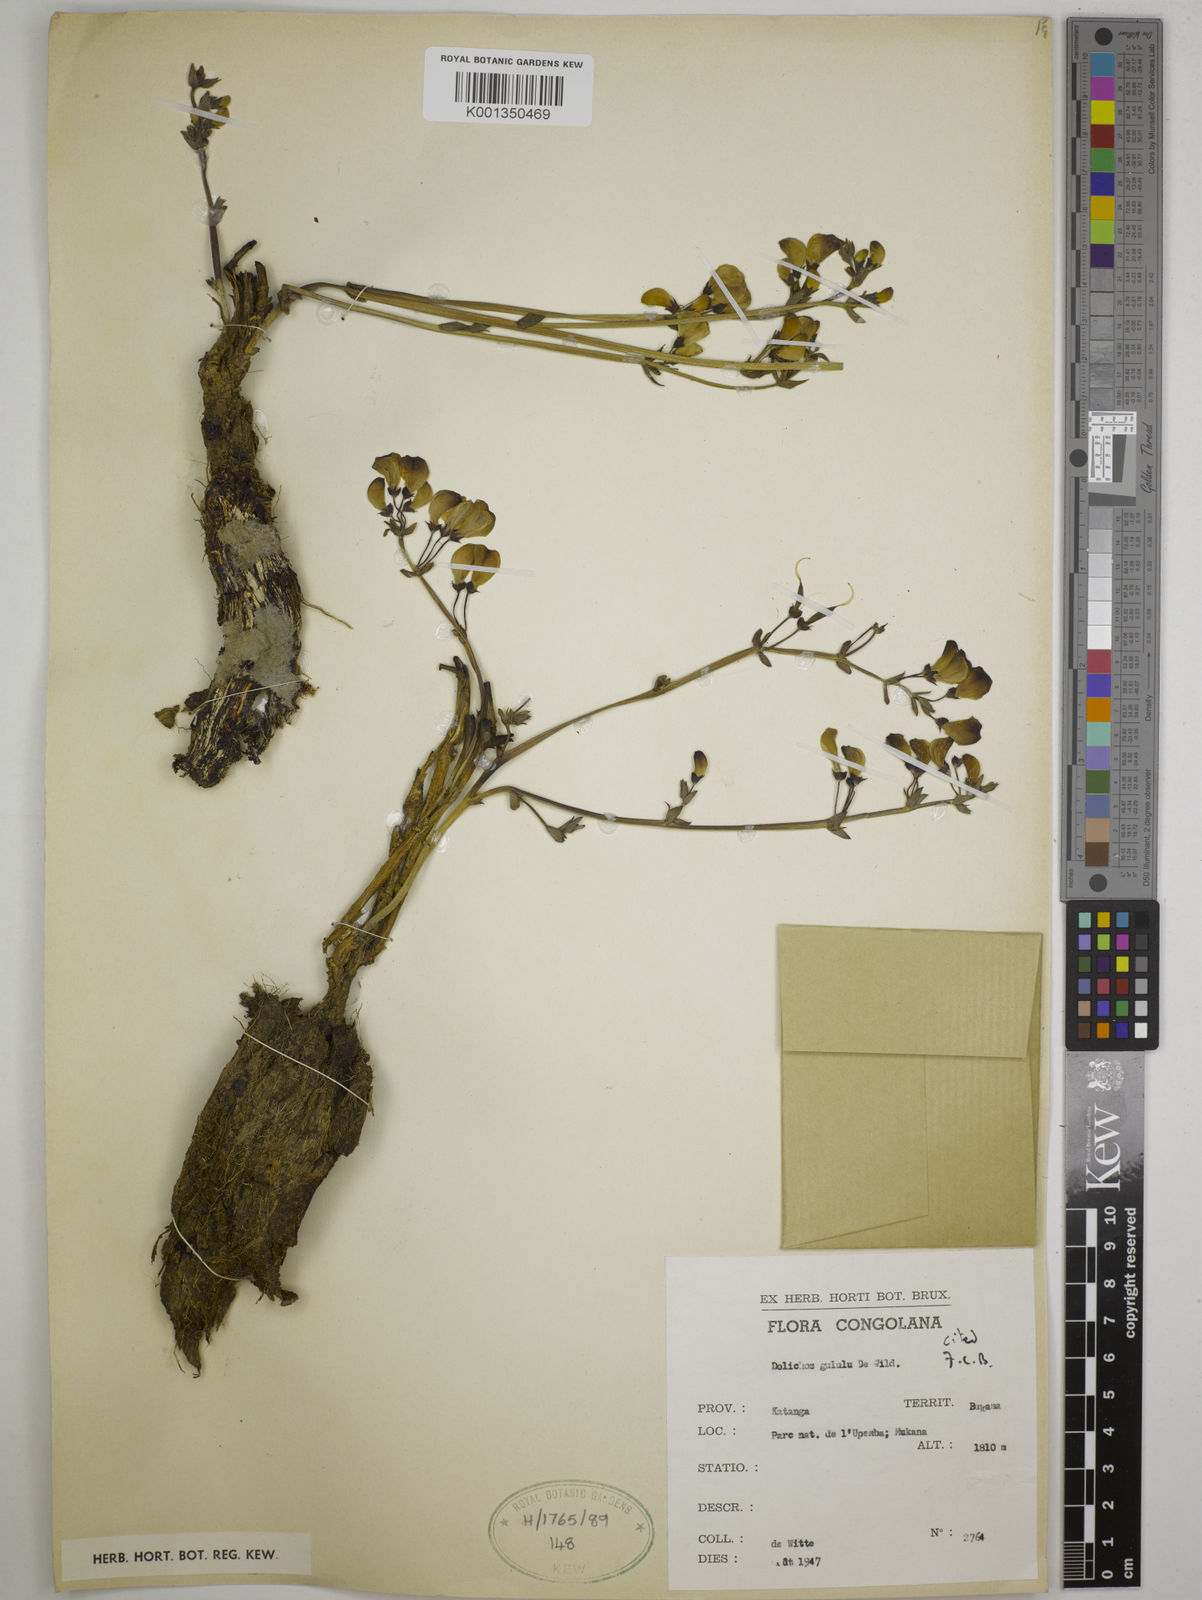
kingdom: Plantae
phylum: Tracheophyta
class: Magnoliopsida
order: Fabales
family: Fabaceae
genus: Dolichos
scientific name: Dolichos gululu
